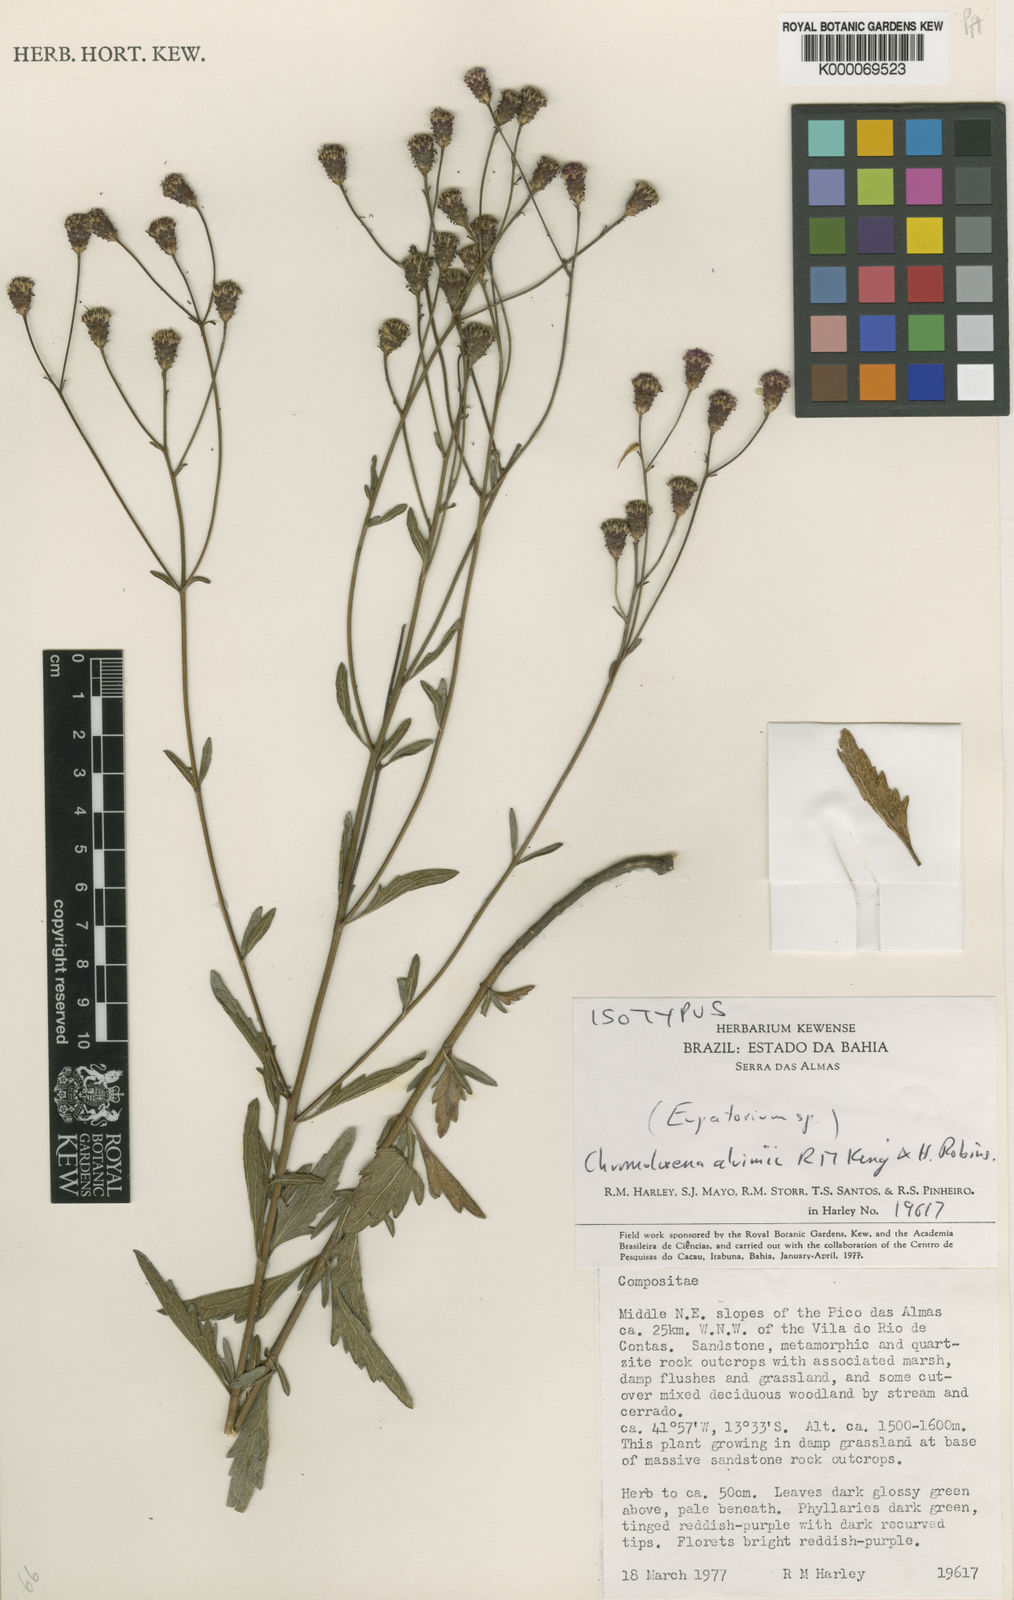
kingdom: Plantae
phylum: Tracheophyta
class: Magnoliopsida
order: Asterales
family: Asteraceae
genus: Chromolaena
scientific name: Chromolaena alvimii
